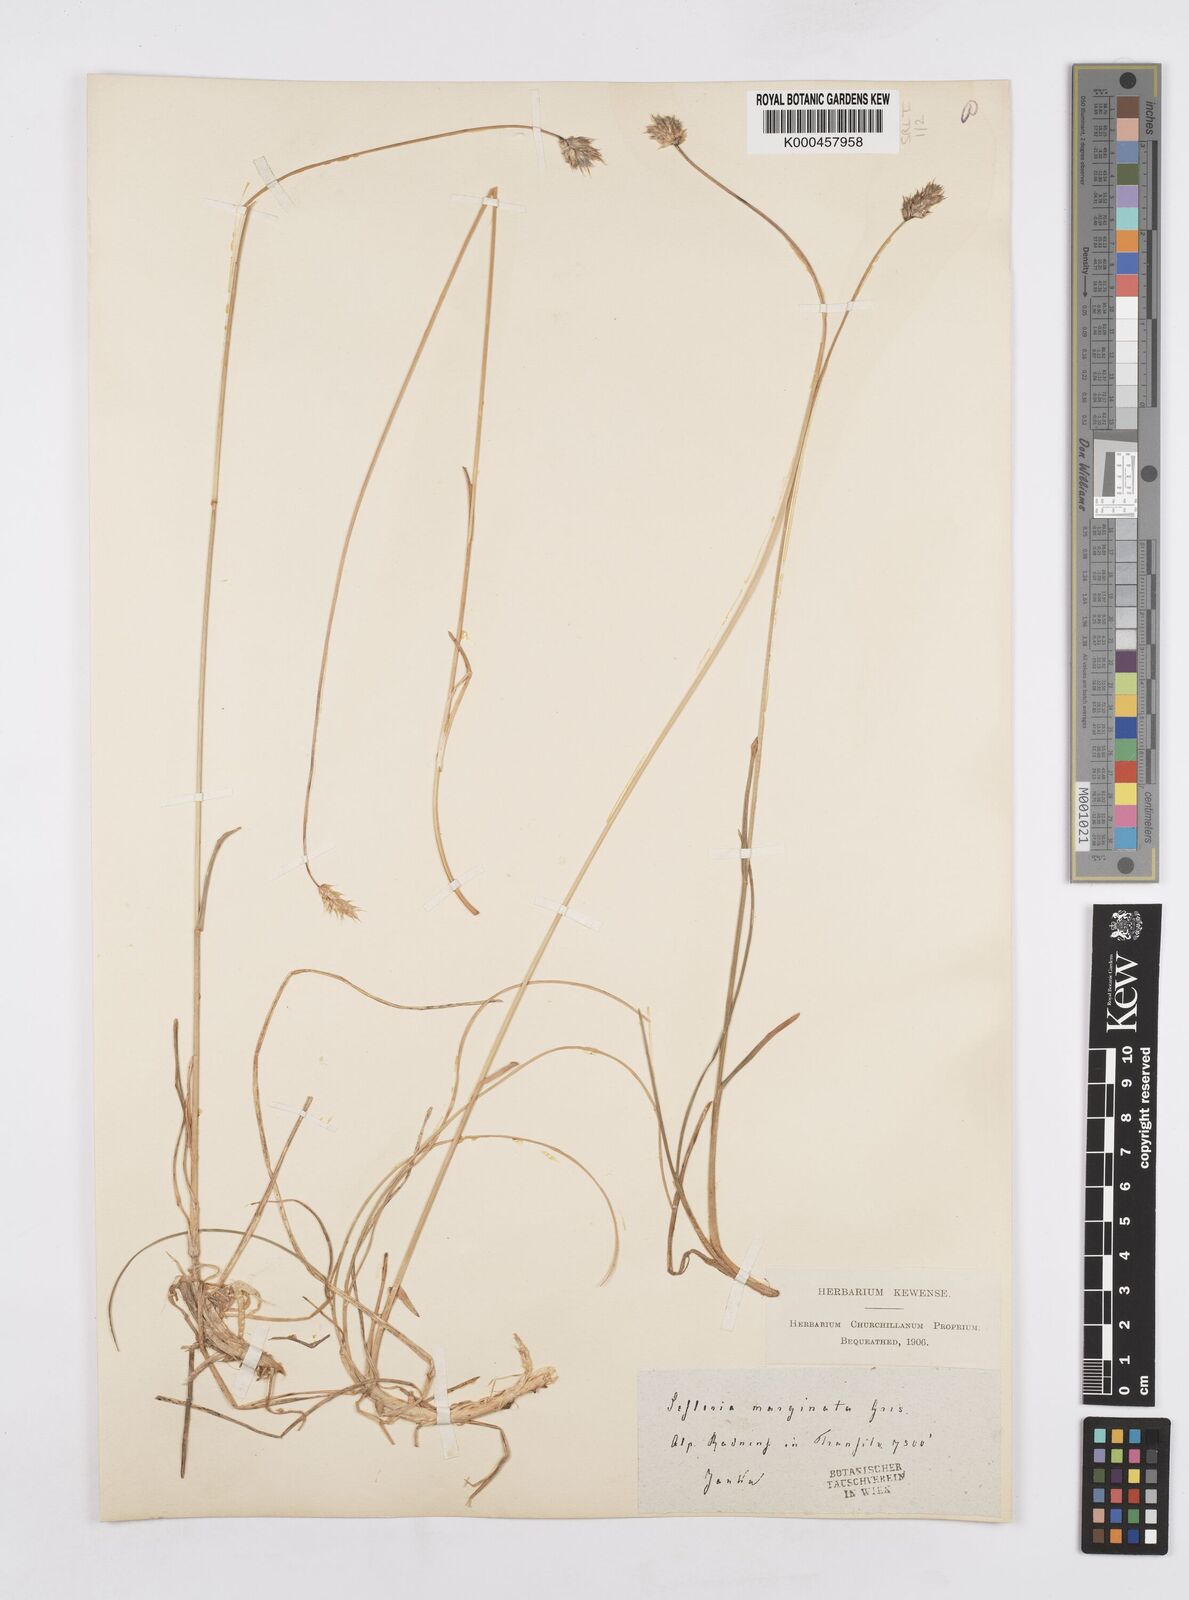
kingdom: Plantae
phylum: Tracheophyta
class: Liliopsida
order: Poales
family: Poaceae
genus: Sesleria
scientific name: Sesleria coerulans
